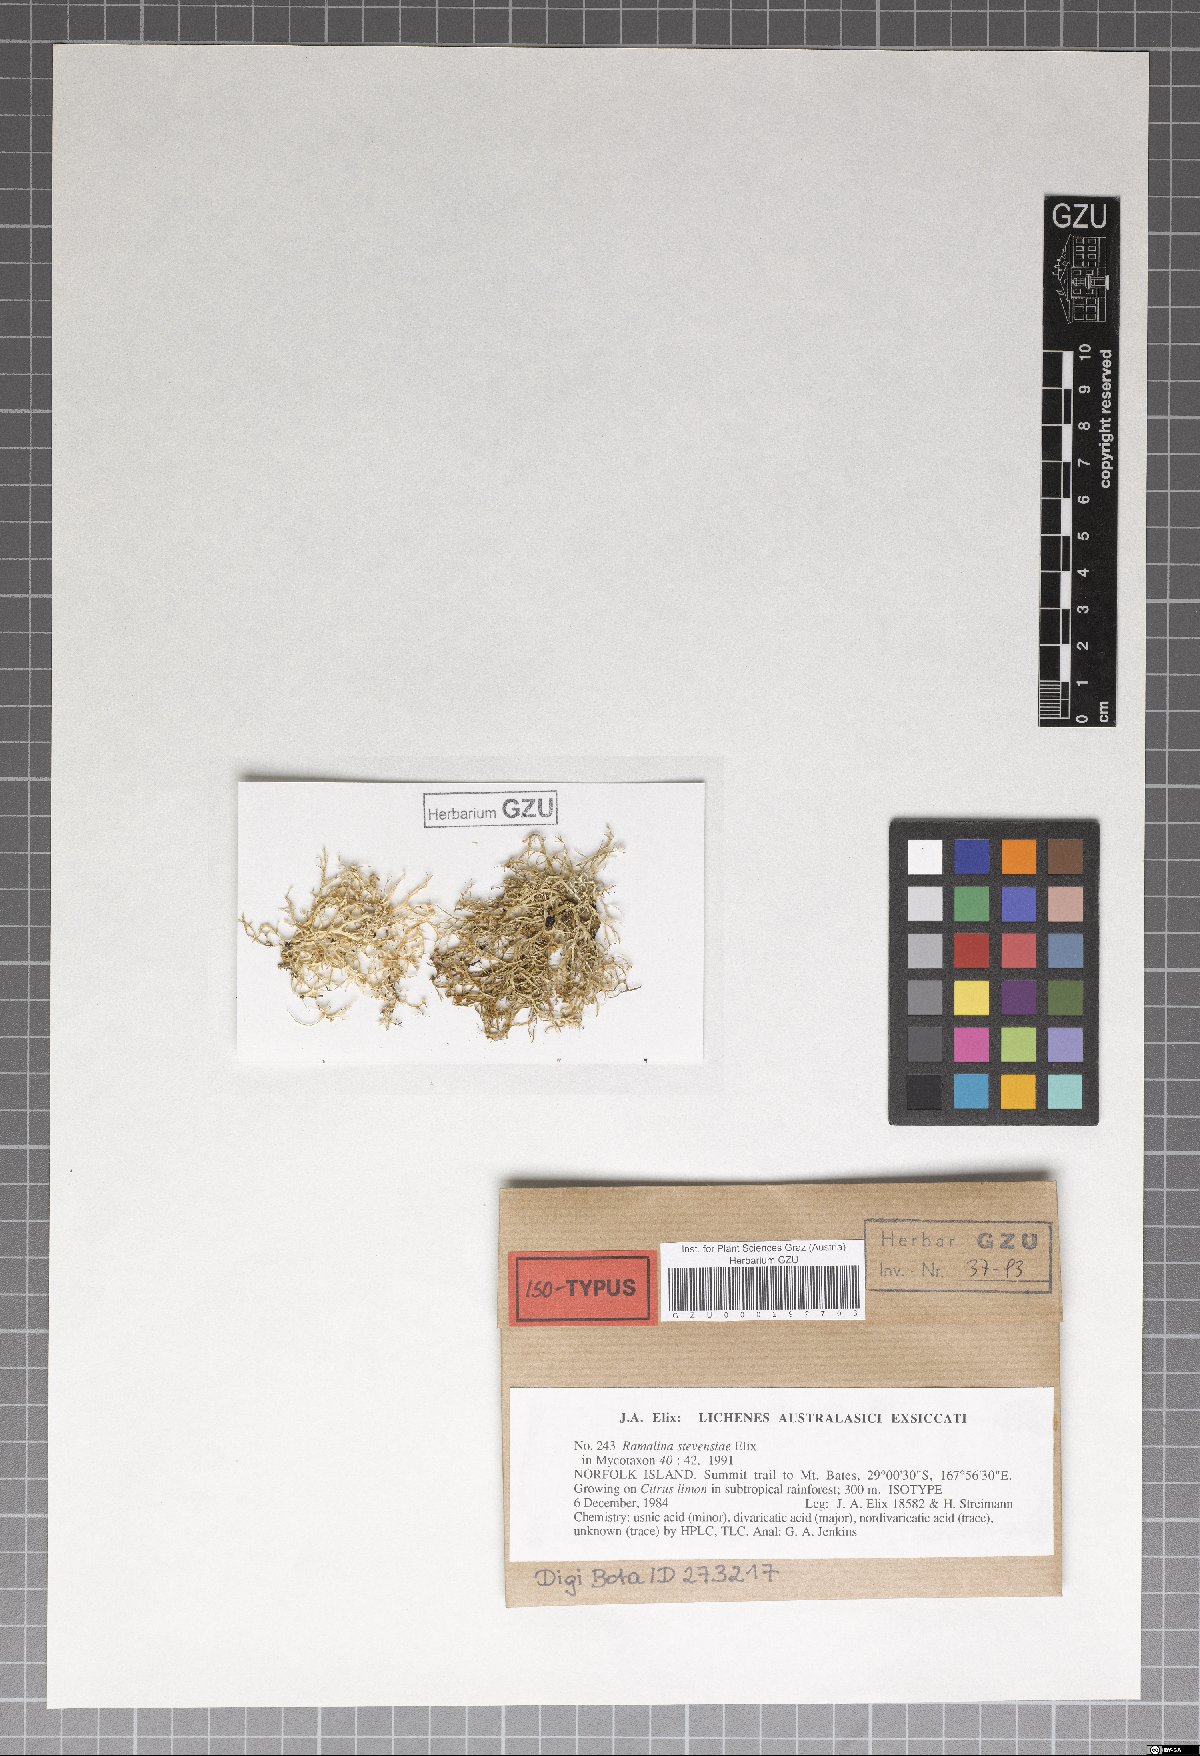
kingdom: Fungi
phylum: Ascomycota
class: Lecanoromycetes
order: Lecanorales
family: Ramalinaceae
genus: Ramalina
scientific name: Ramalina stevensiae
